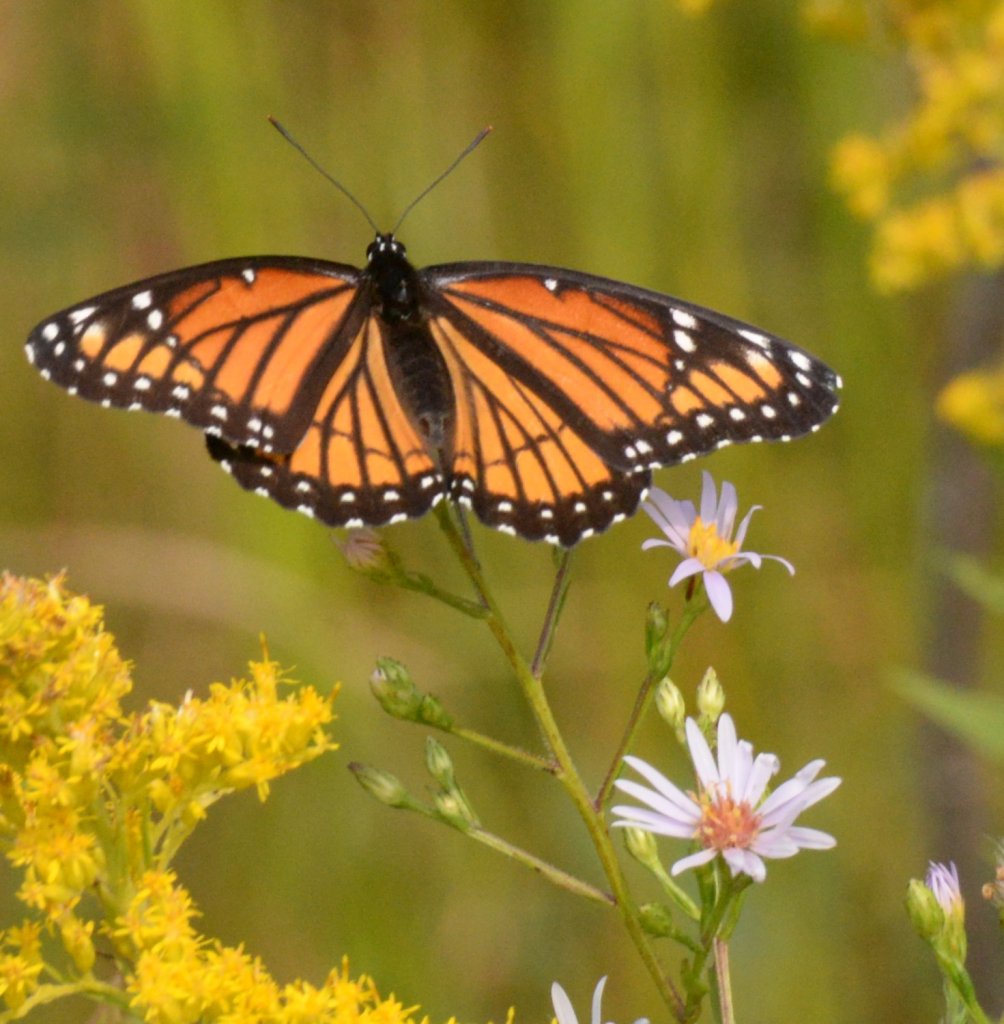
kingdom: Animalia
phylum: Arthropoda
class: Insecta
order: Lepidoptera
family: Nymphalidae
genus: Limenitis
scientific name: Limenitis archippus
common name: Viceroy
